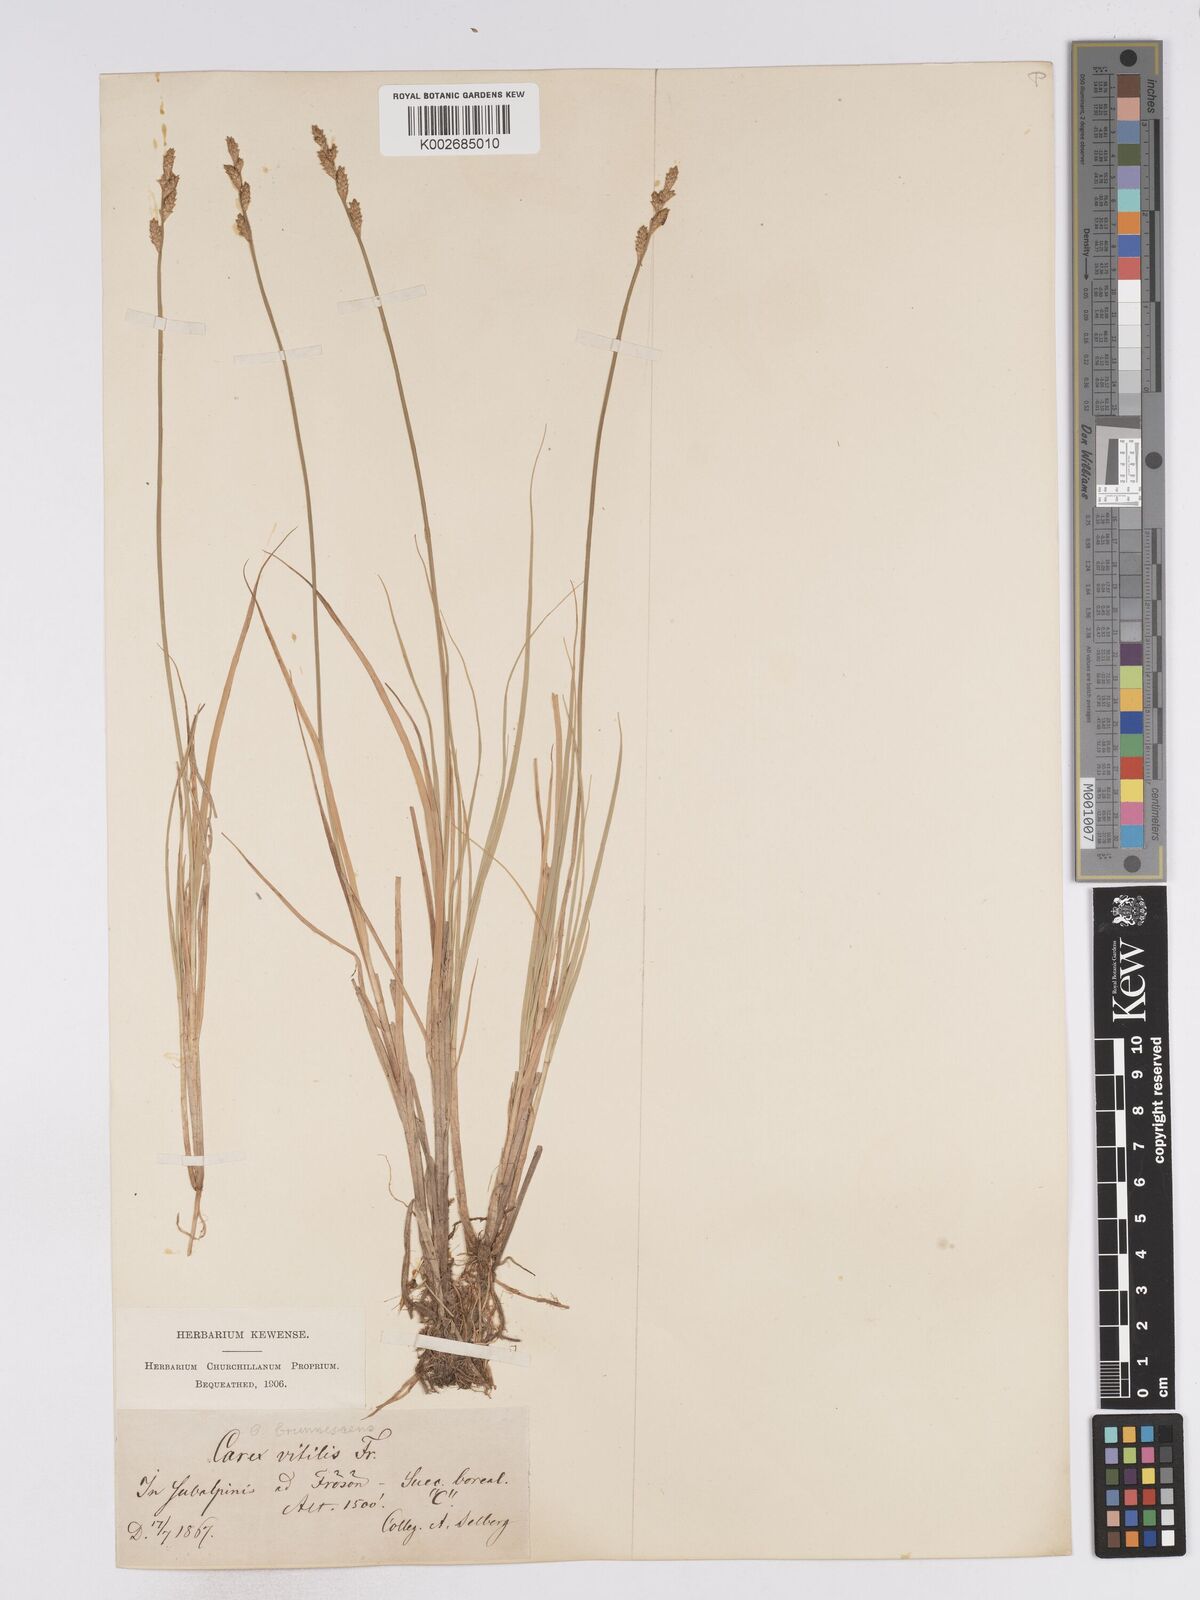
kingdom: Plantae
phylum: Tracheophyta
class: Liliopsida
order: Poales
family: Cyperaceae
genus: Carex
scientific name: Carex brunnescens
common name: Brown sedge
